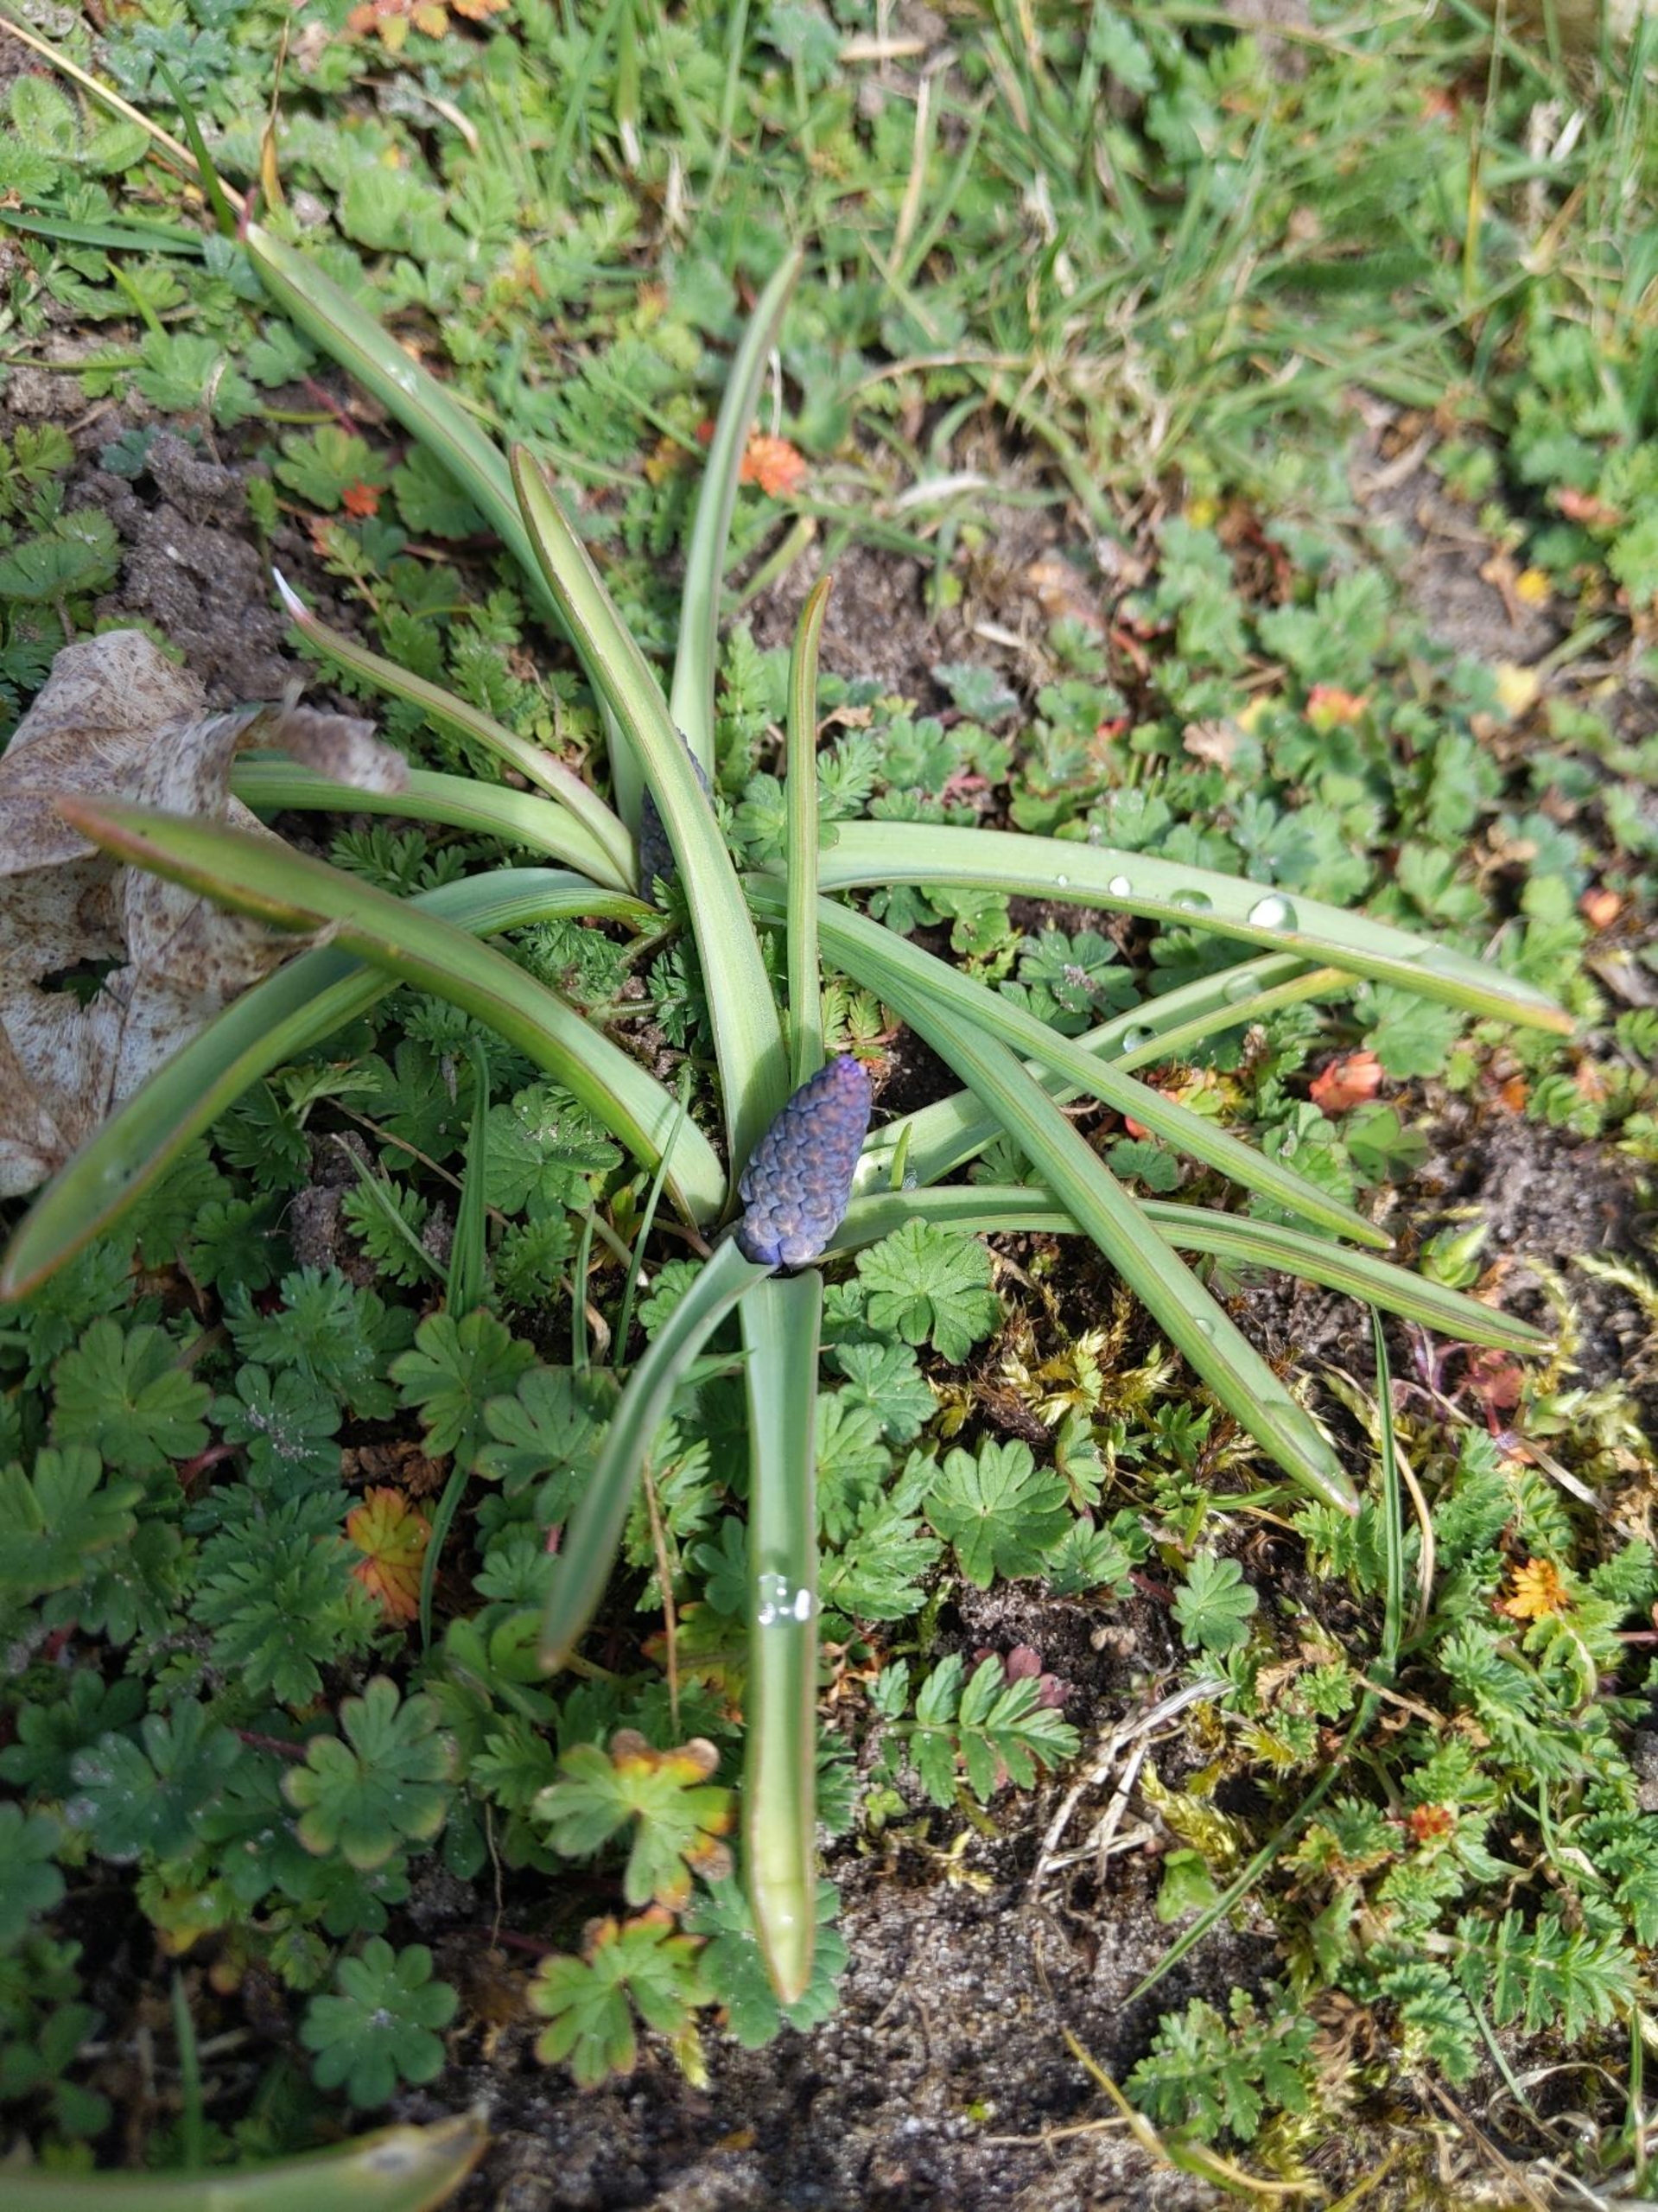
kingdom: Plantae
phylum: Tracheophyta
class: Liliopsida
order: Asparagales
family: Asparagaceae
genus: Muscari
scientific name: Muscari botryoides
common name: Perlehyacint
